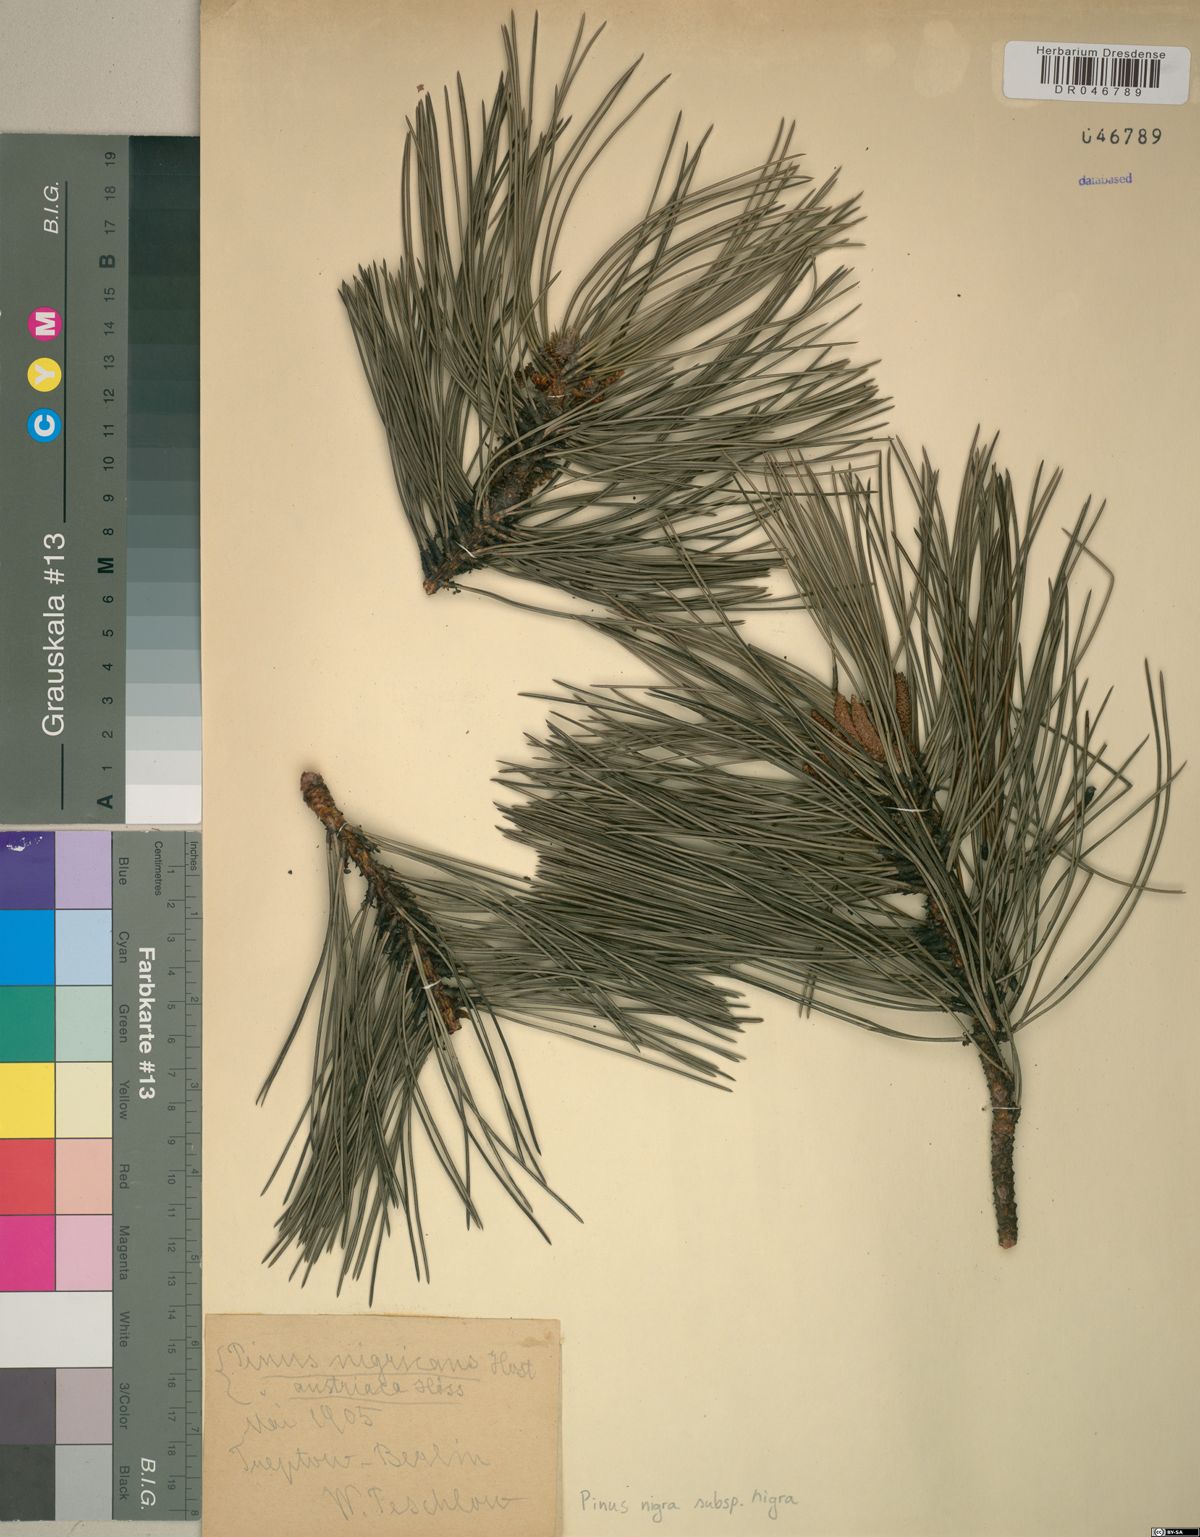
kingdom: Plantae
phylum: Tracheophyta
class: Pinopsida
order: Pinales
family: Pinaceae
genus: Pinus
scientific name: Pinus nigra
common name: Austrian pine
